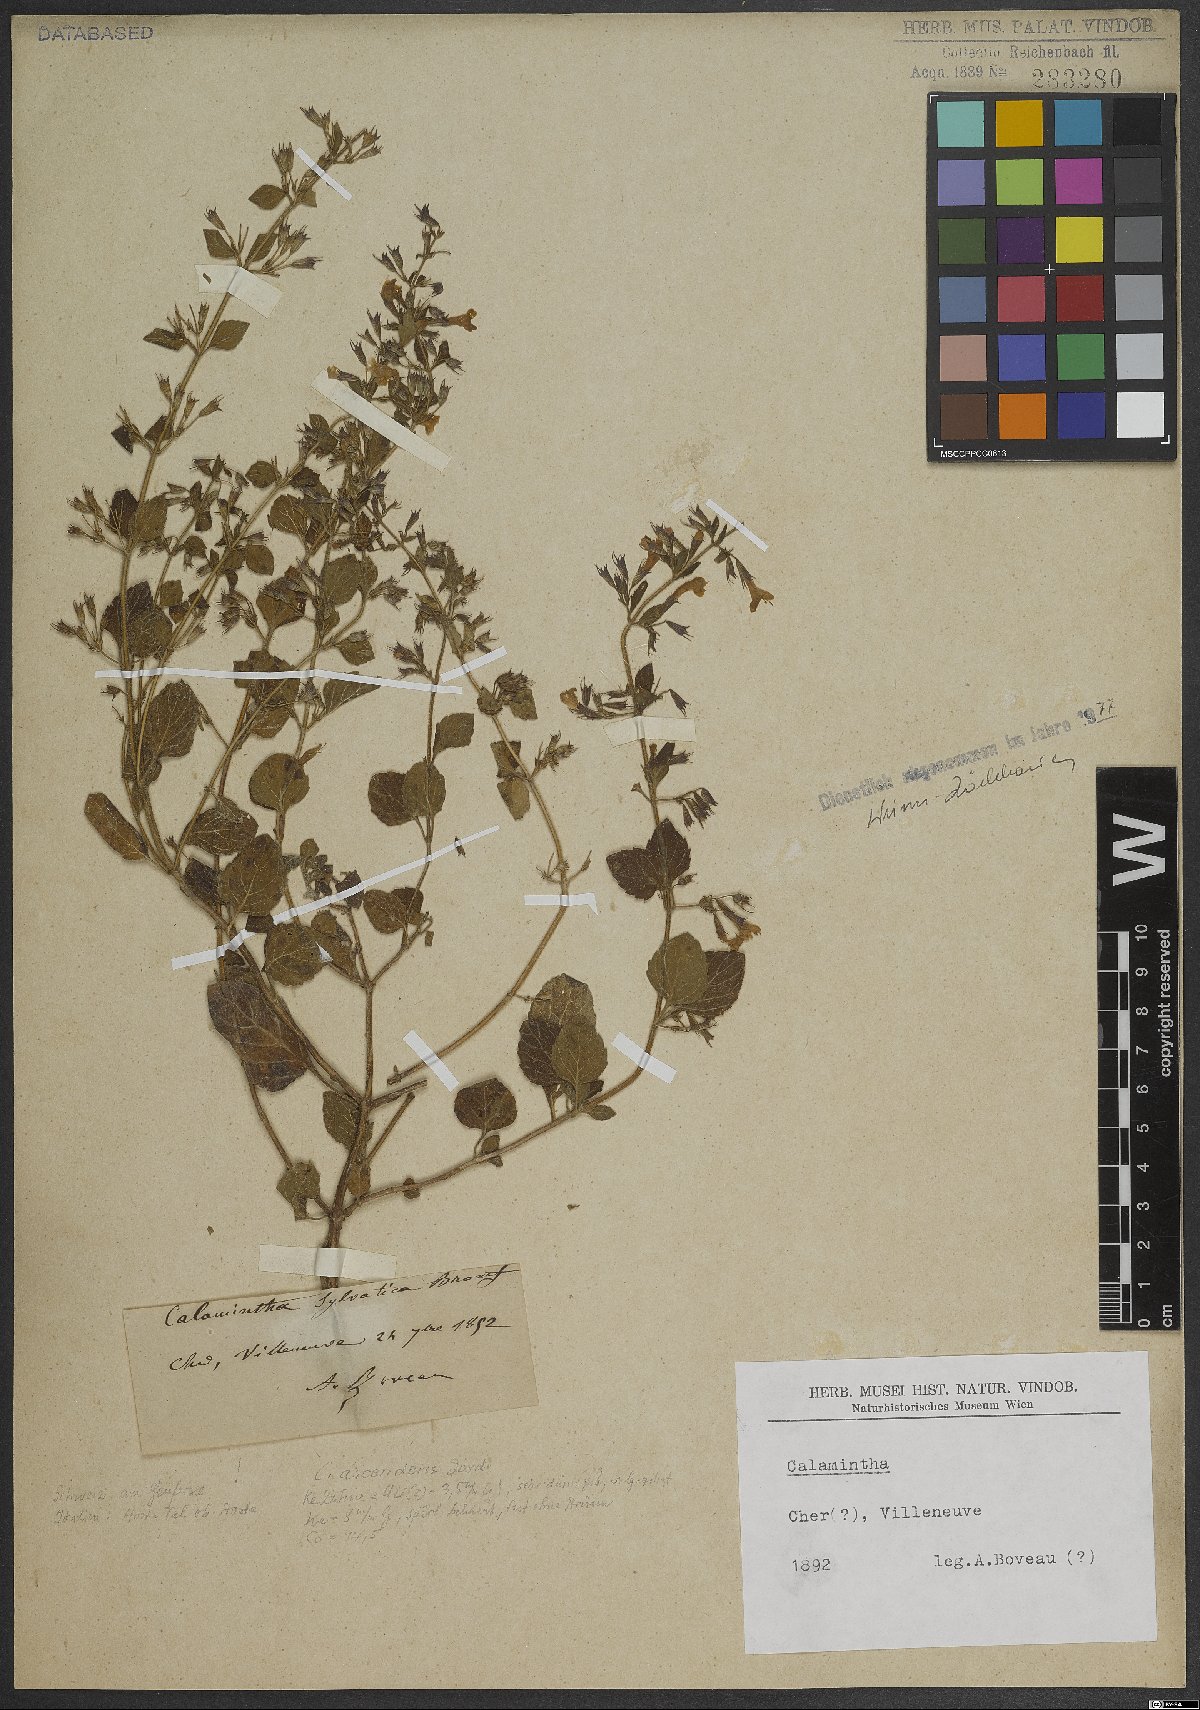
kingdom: Plantae
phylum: Tracheophyta
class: Magnoliopsida
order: Lamiales
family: Lamiaceae
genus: Calamintha
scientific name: Calamintha
